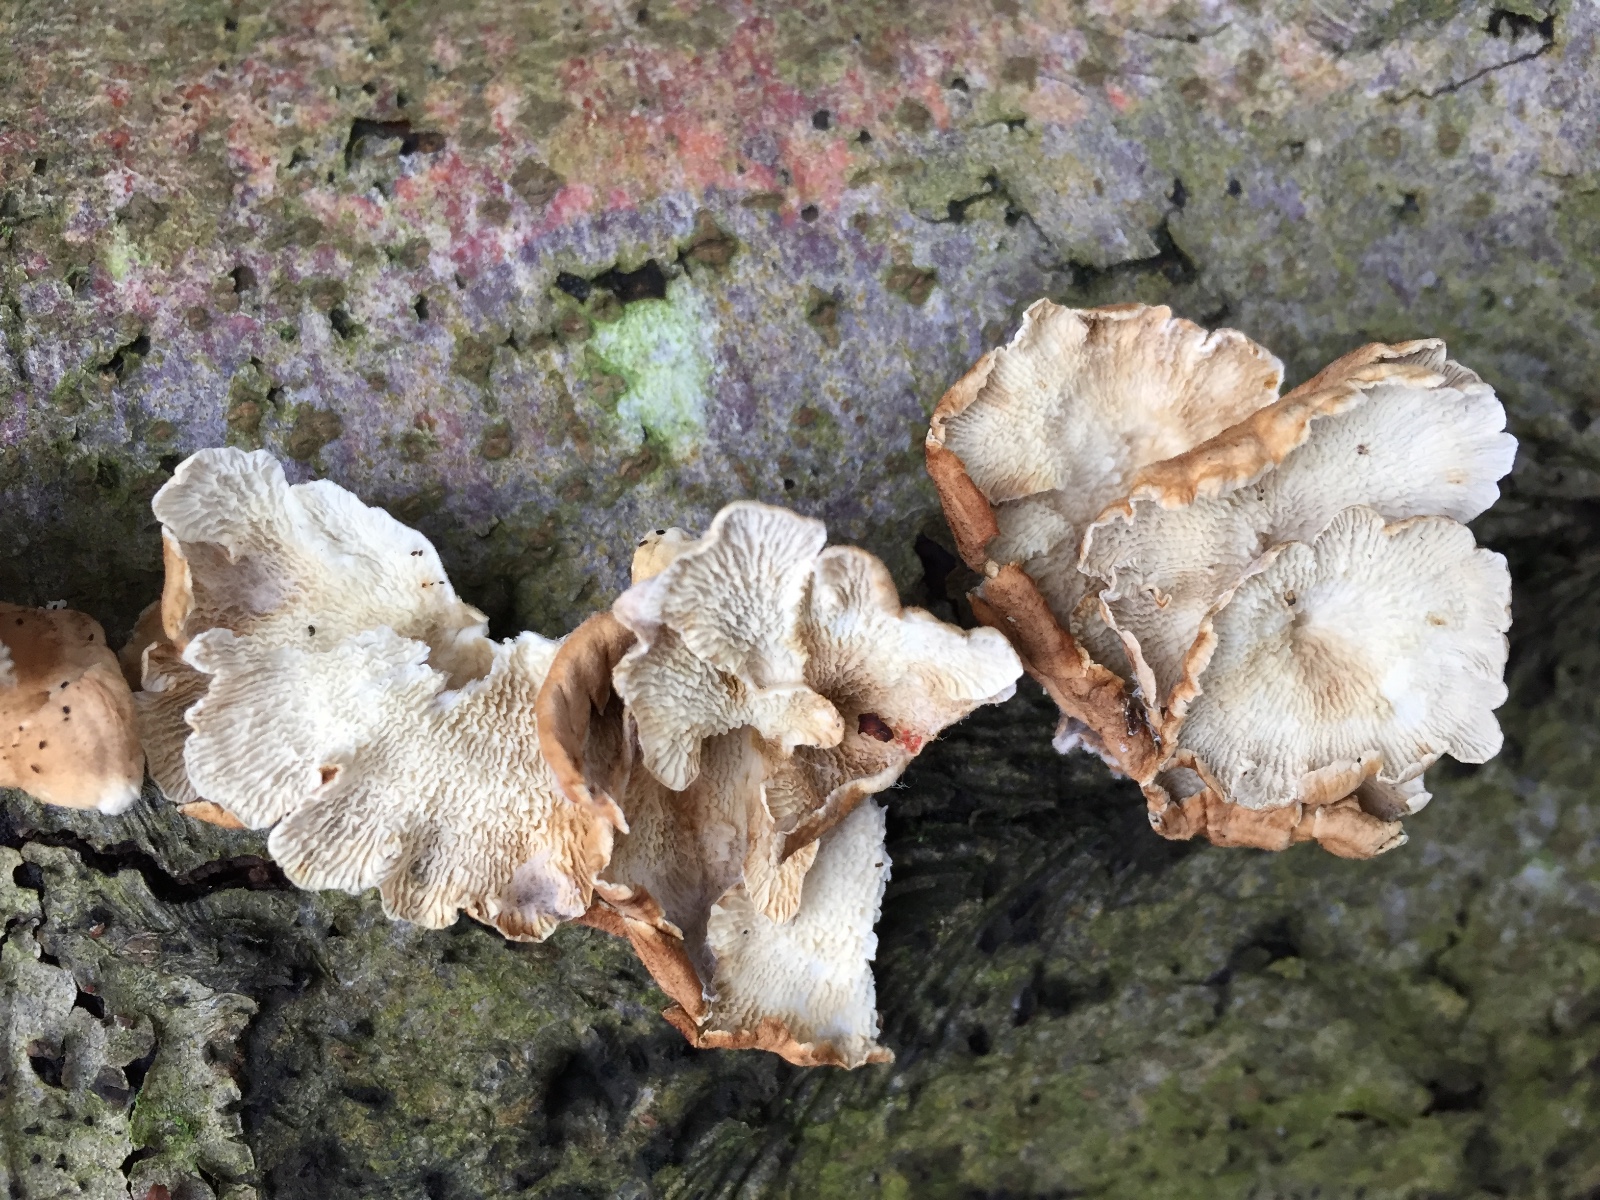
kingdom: Fungi
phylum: Basidiomycota
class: Agaricomycetes
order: Amylocorticiales
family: Amylocorticiaceae
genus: Plicaturopsis
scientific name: Plicaturopsis crispa
